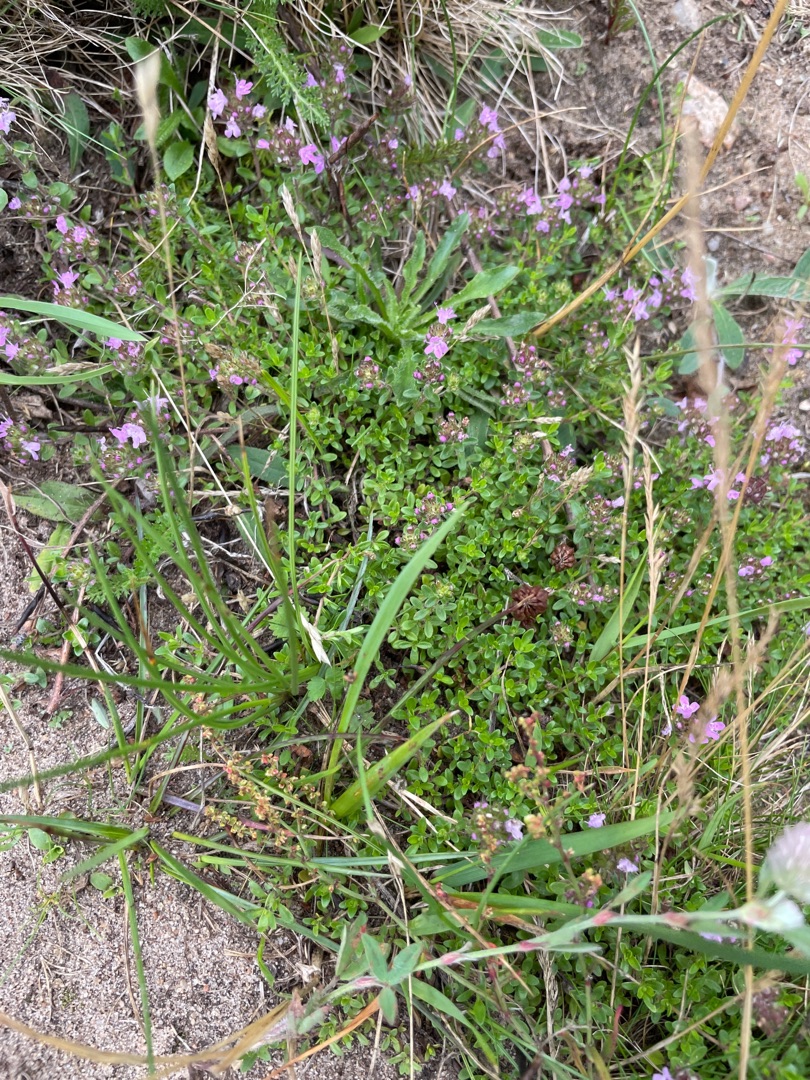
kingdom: Plantae
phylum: Tracheophyta
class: Magnoliopsida
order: Lamiales
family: Lamiaceae
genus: Thymus
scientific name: Thymus serpyllum
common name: Smalbladet timian
